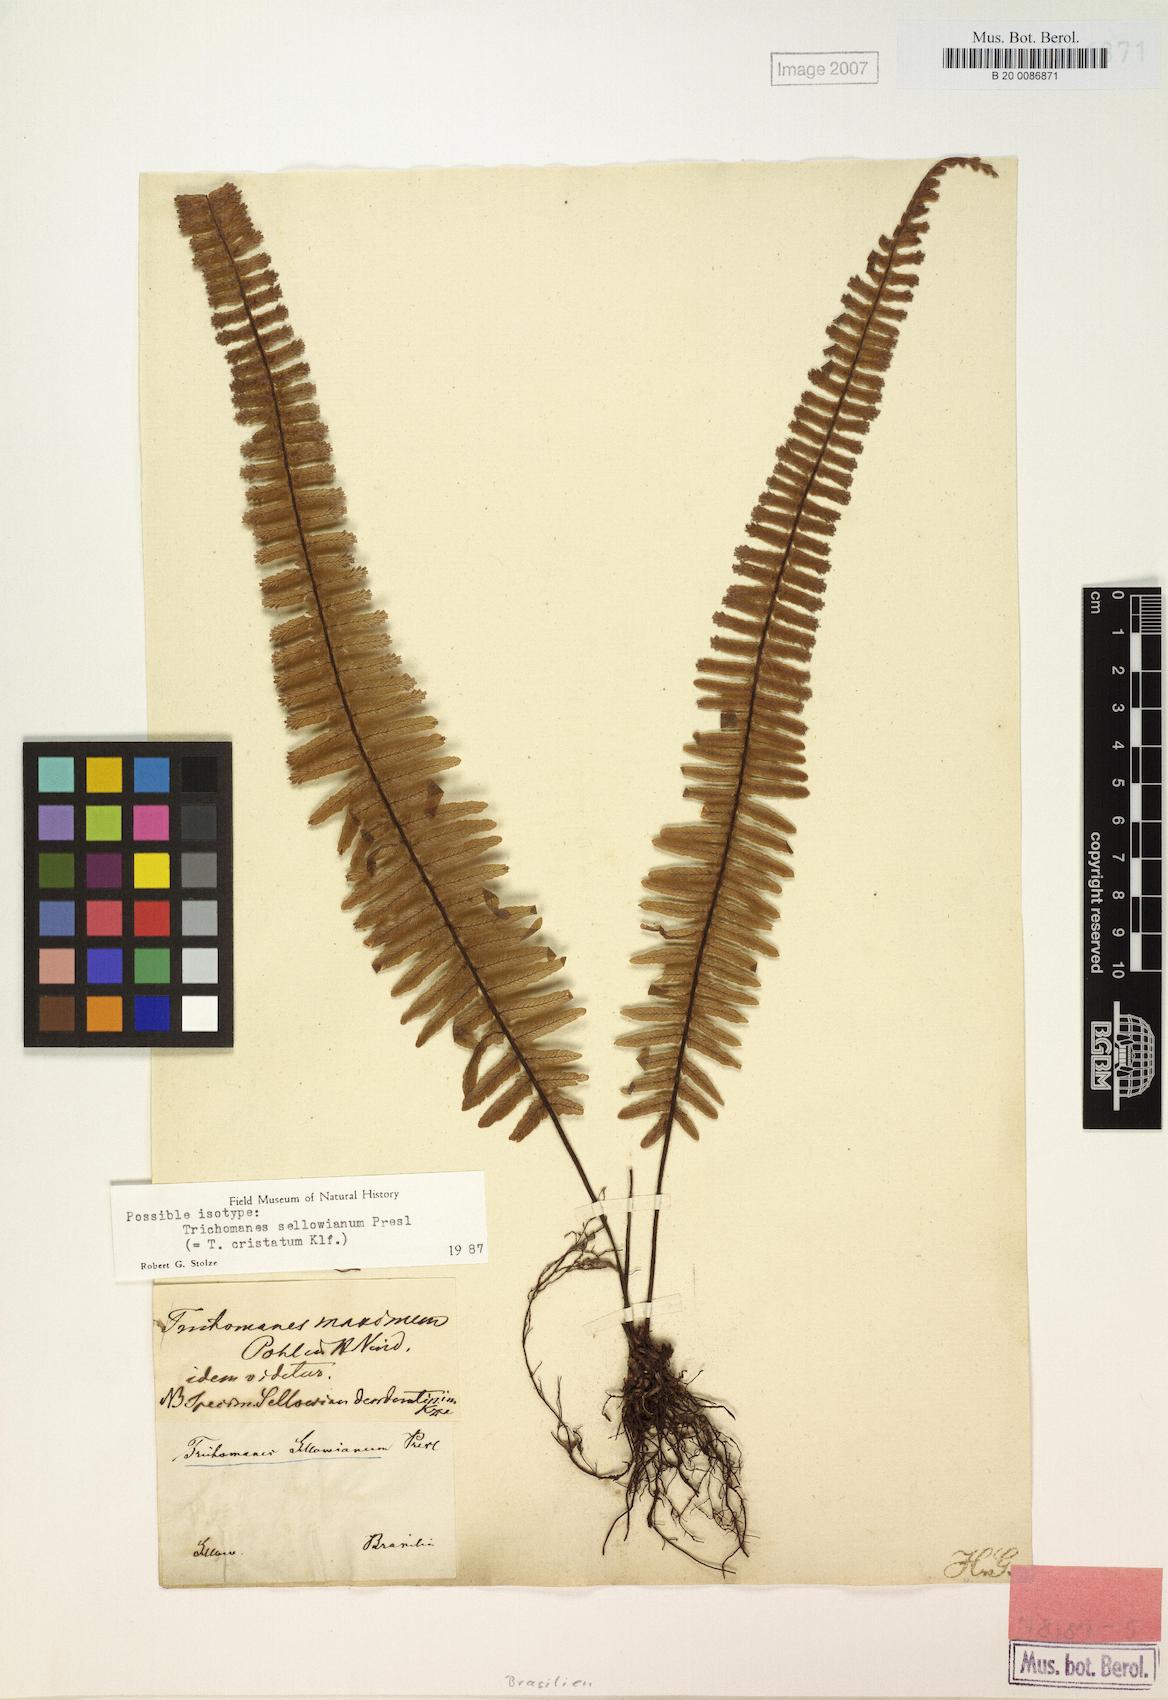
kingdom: Plantae
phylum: Tracheophyta
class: Polypodiopsida
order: Hymenophyllales
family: Hymenophyllaceae
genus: Trichomanes
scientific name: Trichomanes cristatum
